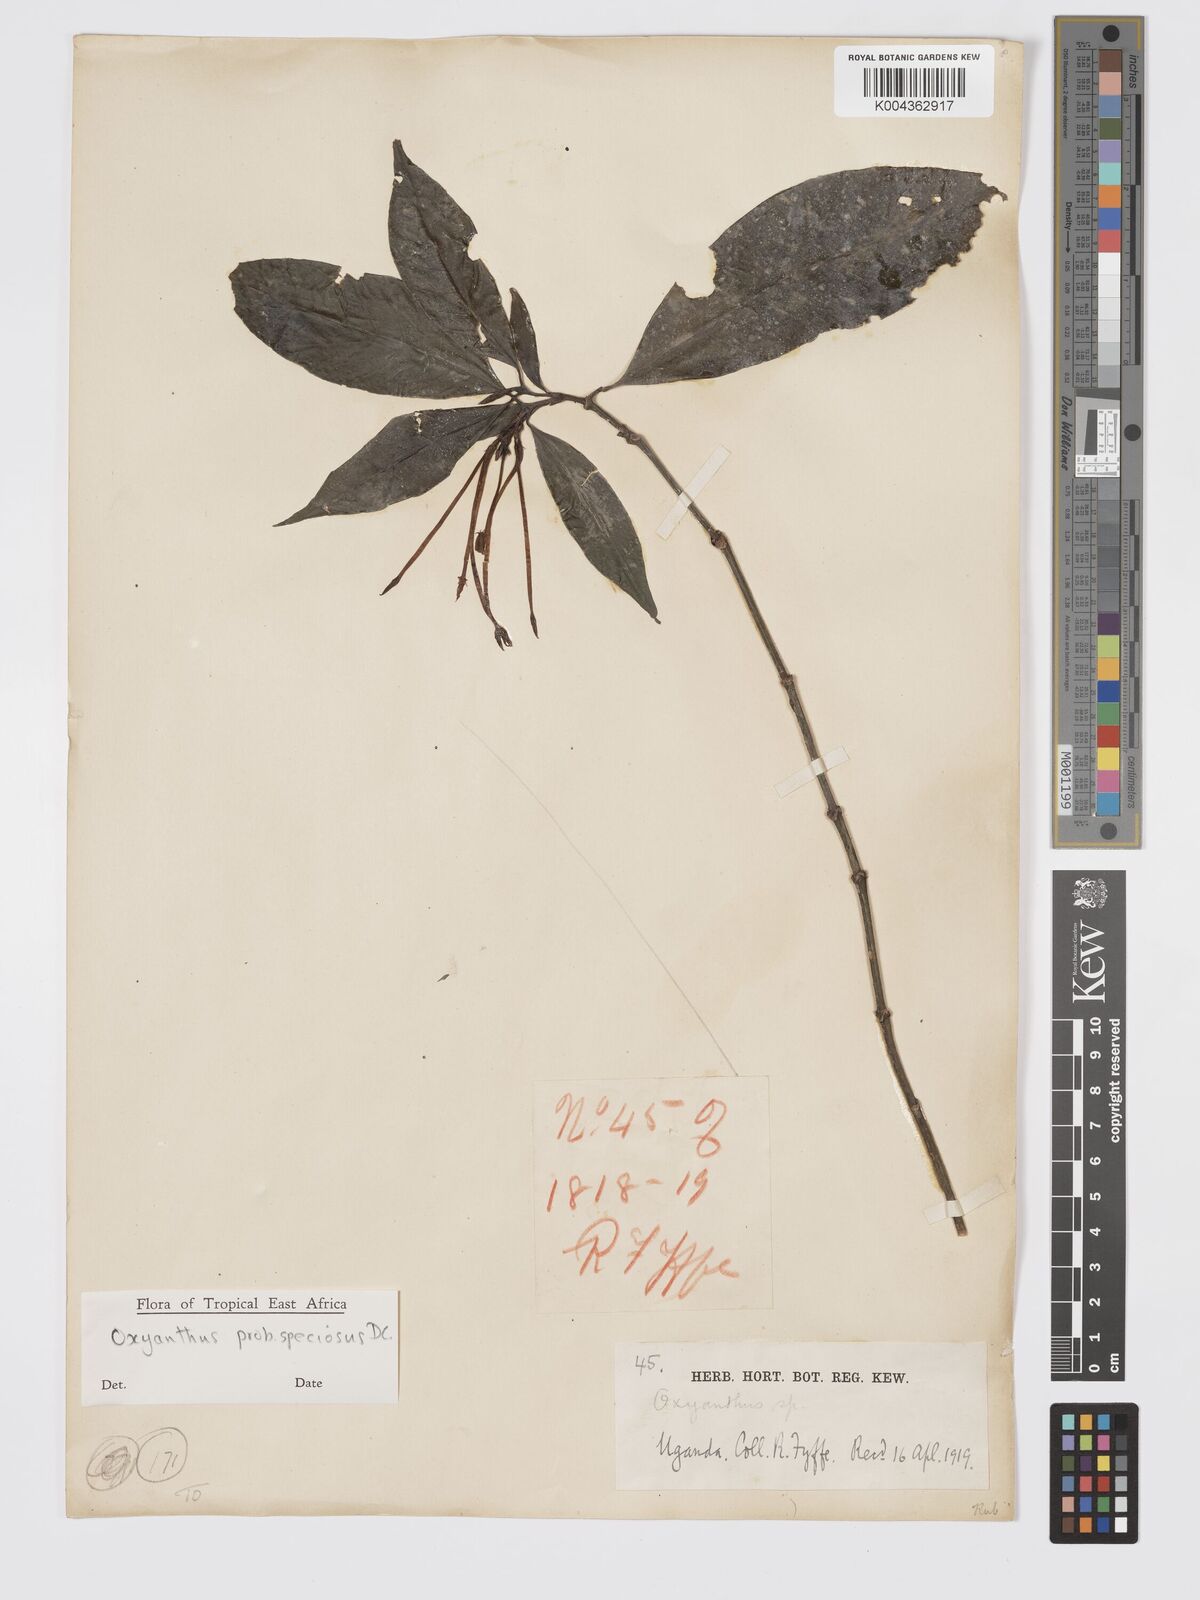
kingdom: Plantae
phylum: Tracheophyta
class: Magnoliopsida
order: Gentianales
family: Rubiaceae
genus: Oxyanthus
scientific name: Oxyanthus
